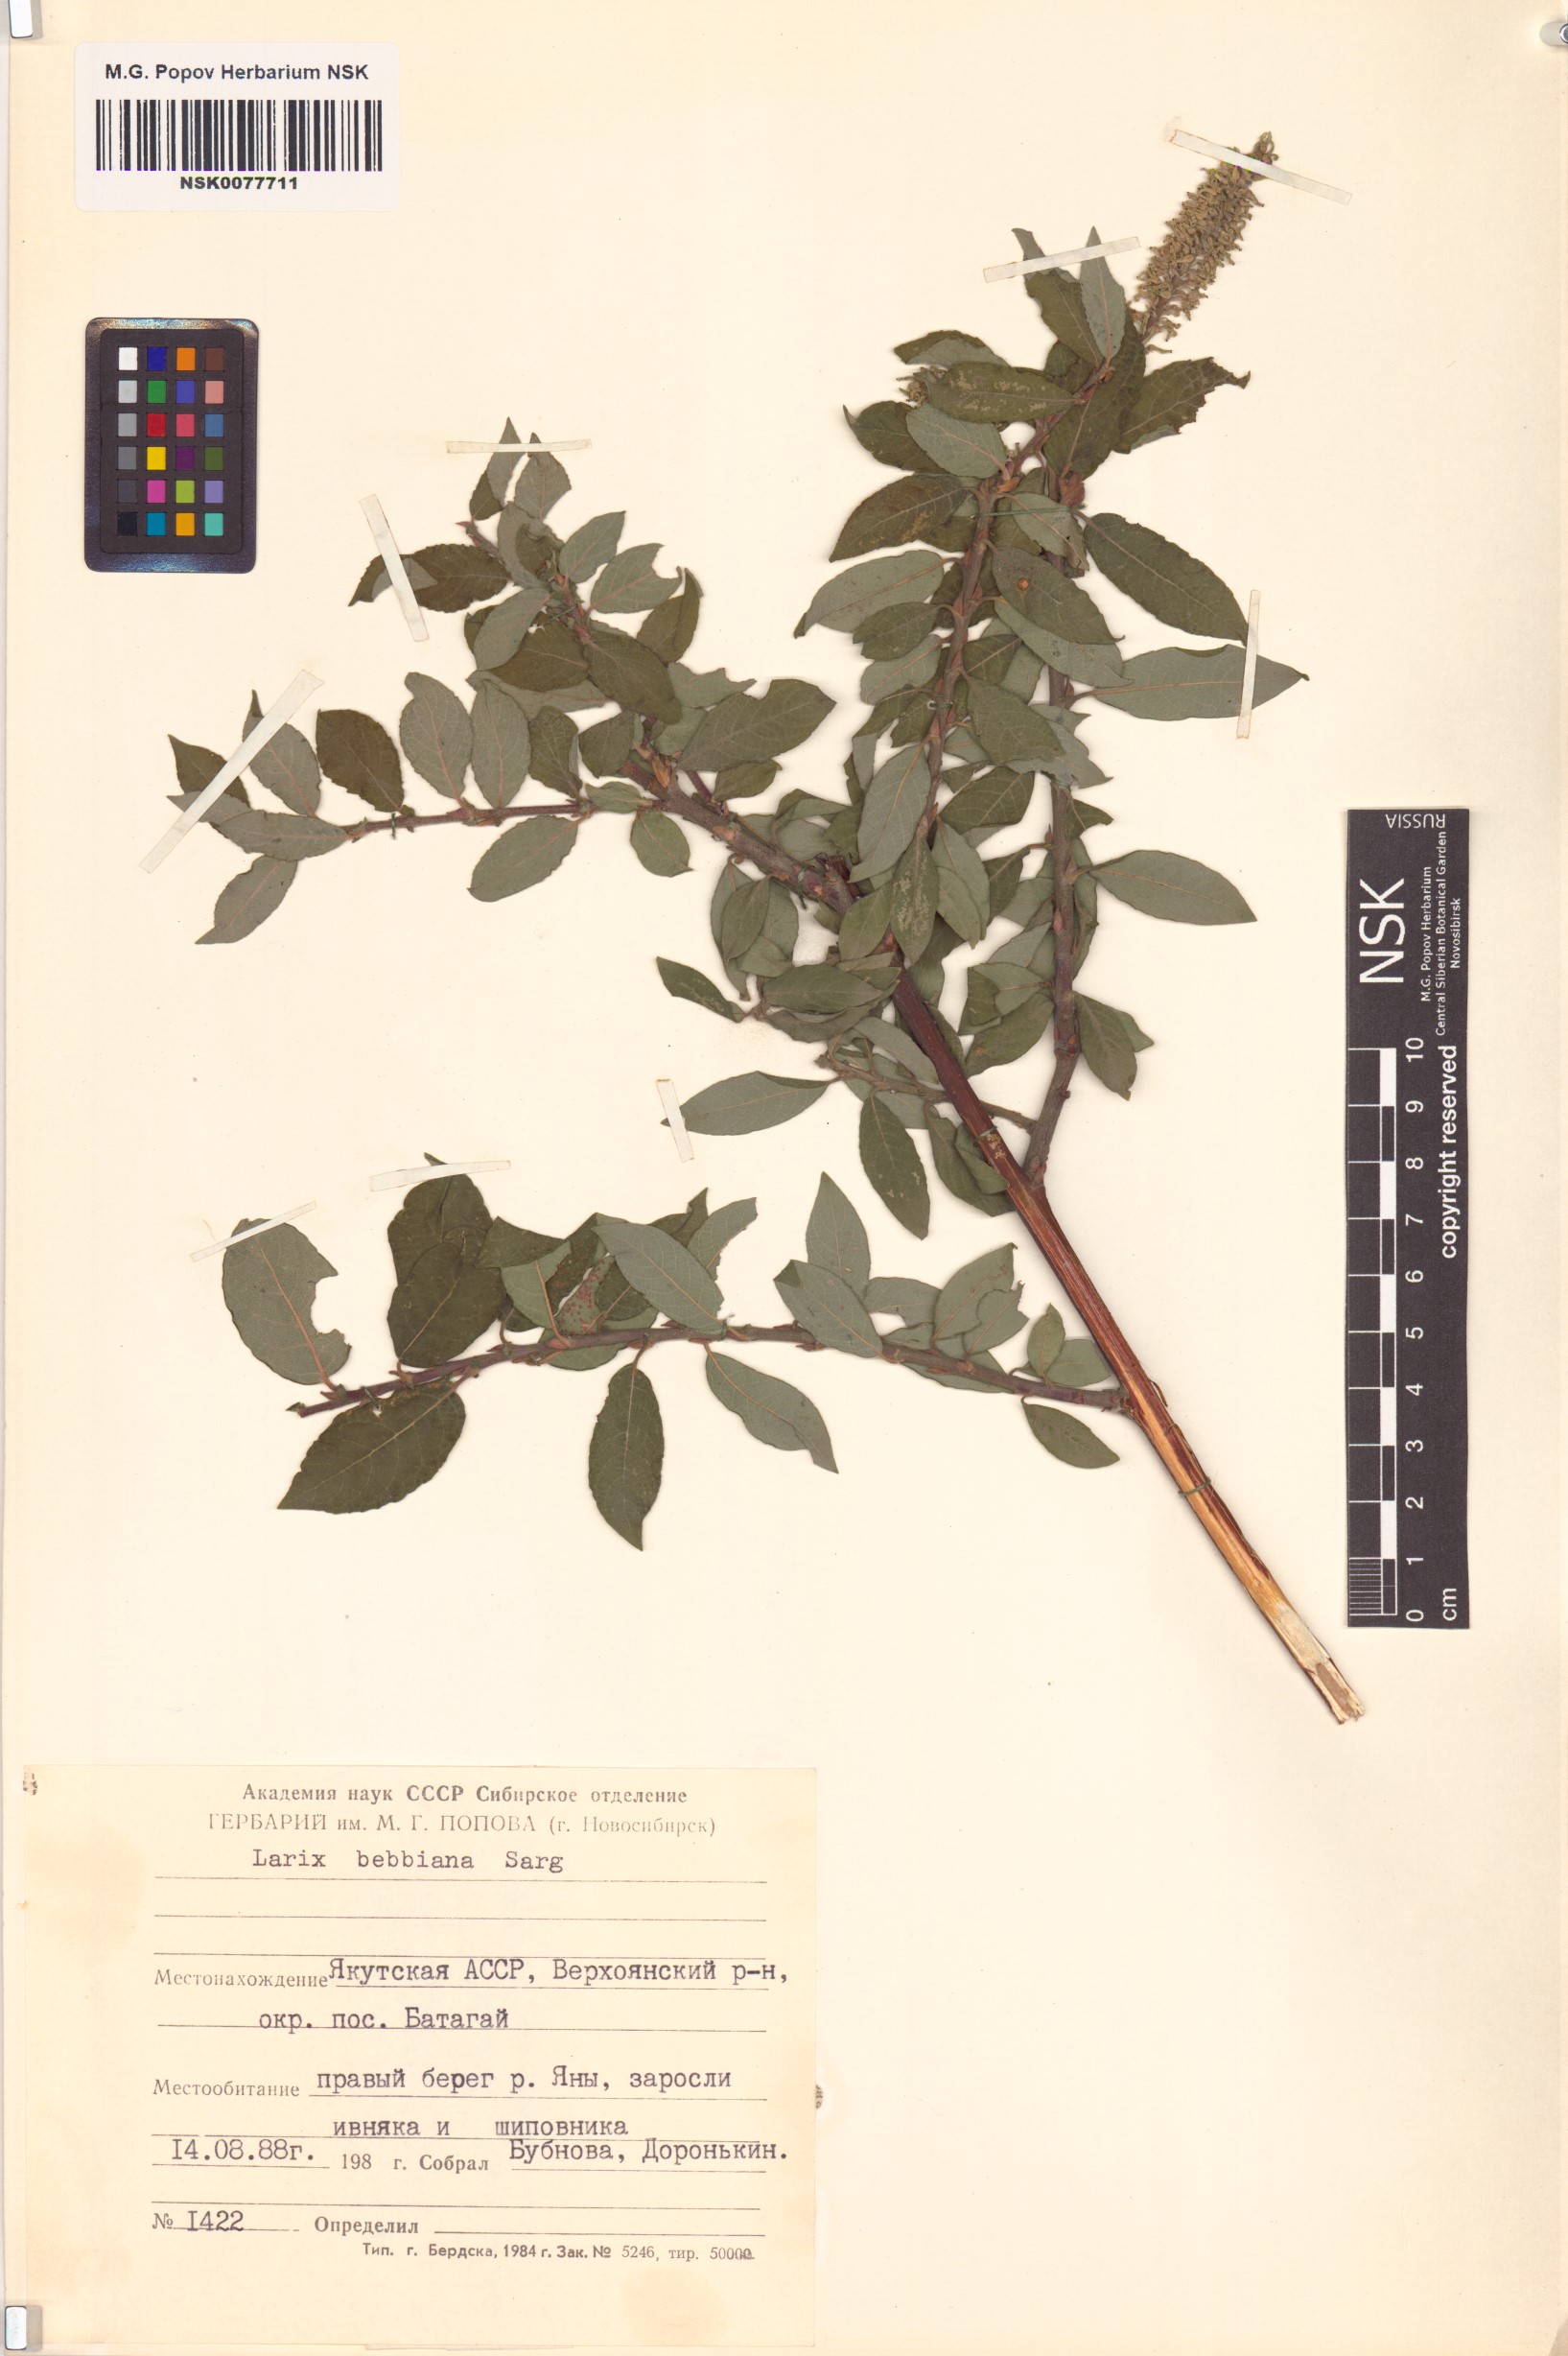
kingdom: Plantae
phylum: Tracheophyta
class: Magnoliopsida
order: Malpighiales
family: Salicaceae
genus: Salix
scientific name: Salix bebbiana
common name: Bebb's willow
